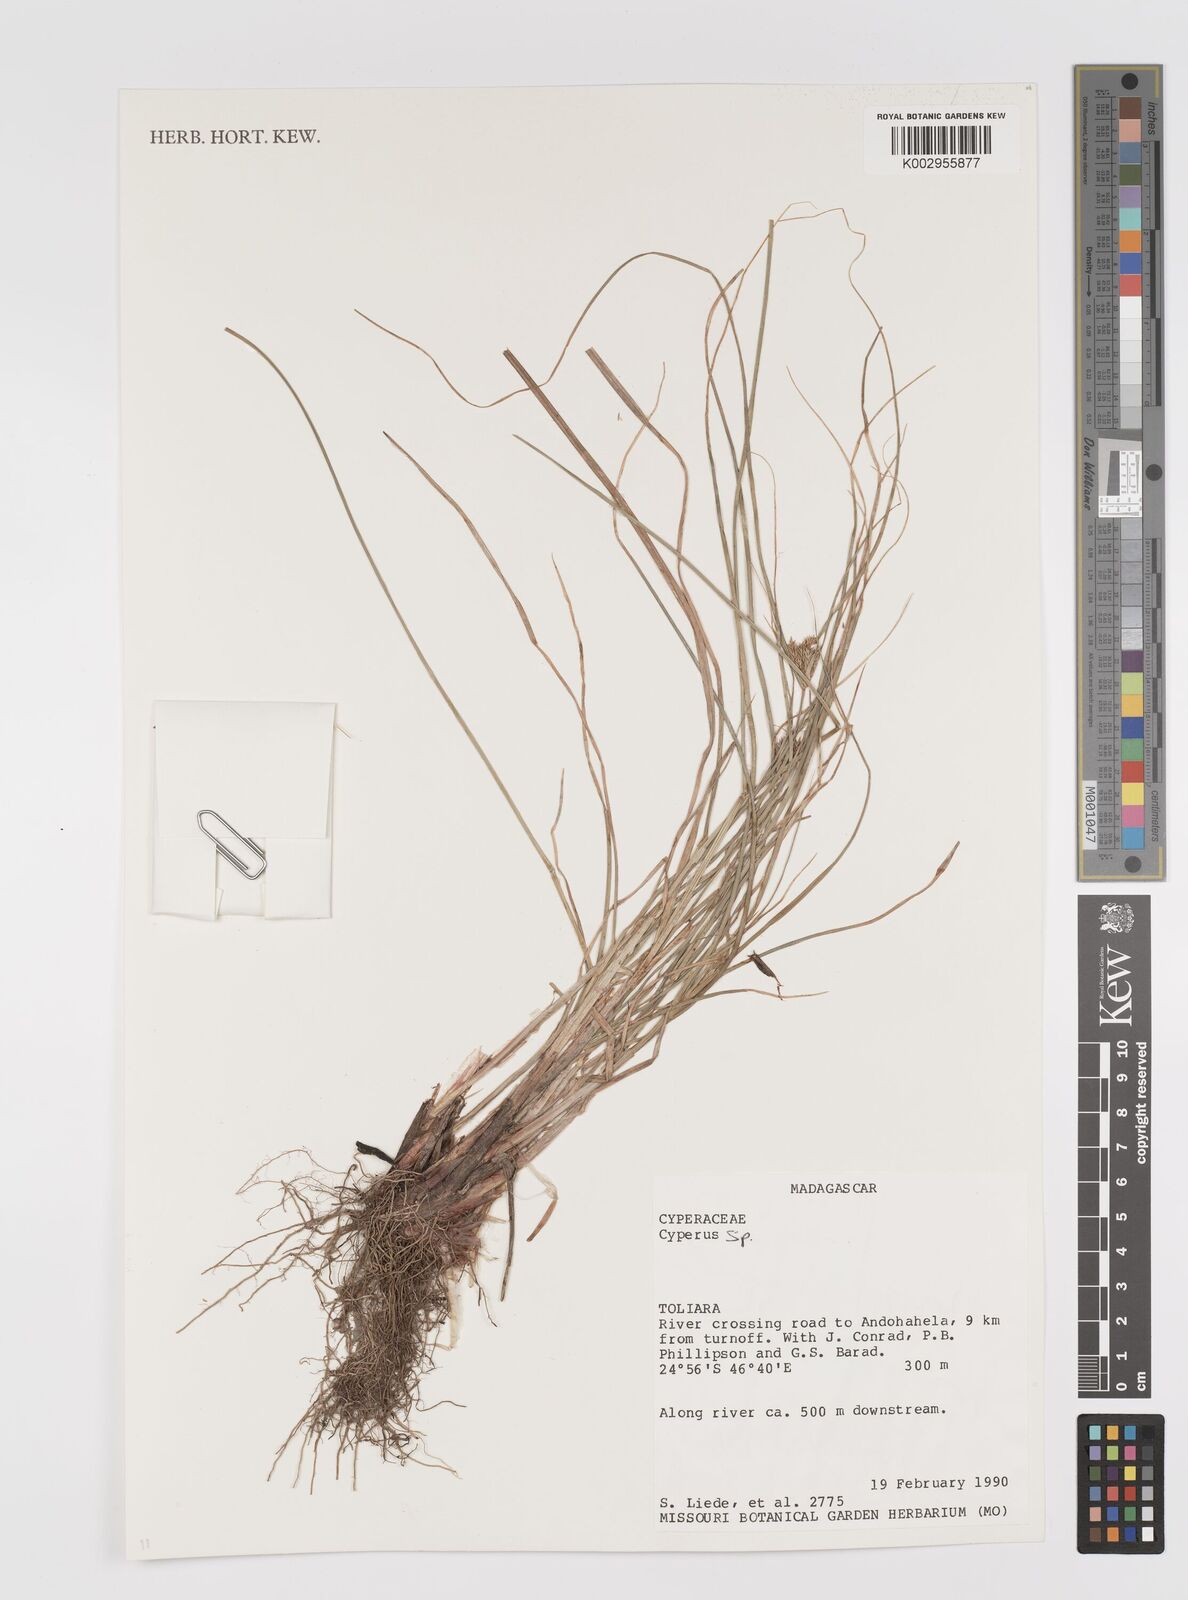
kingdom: Plantae
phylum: Tracheophyta
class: Liliopsida
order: Poales
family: Cyperaceae
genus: Cyperus
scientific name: Cyperus
